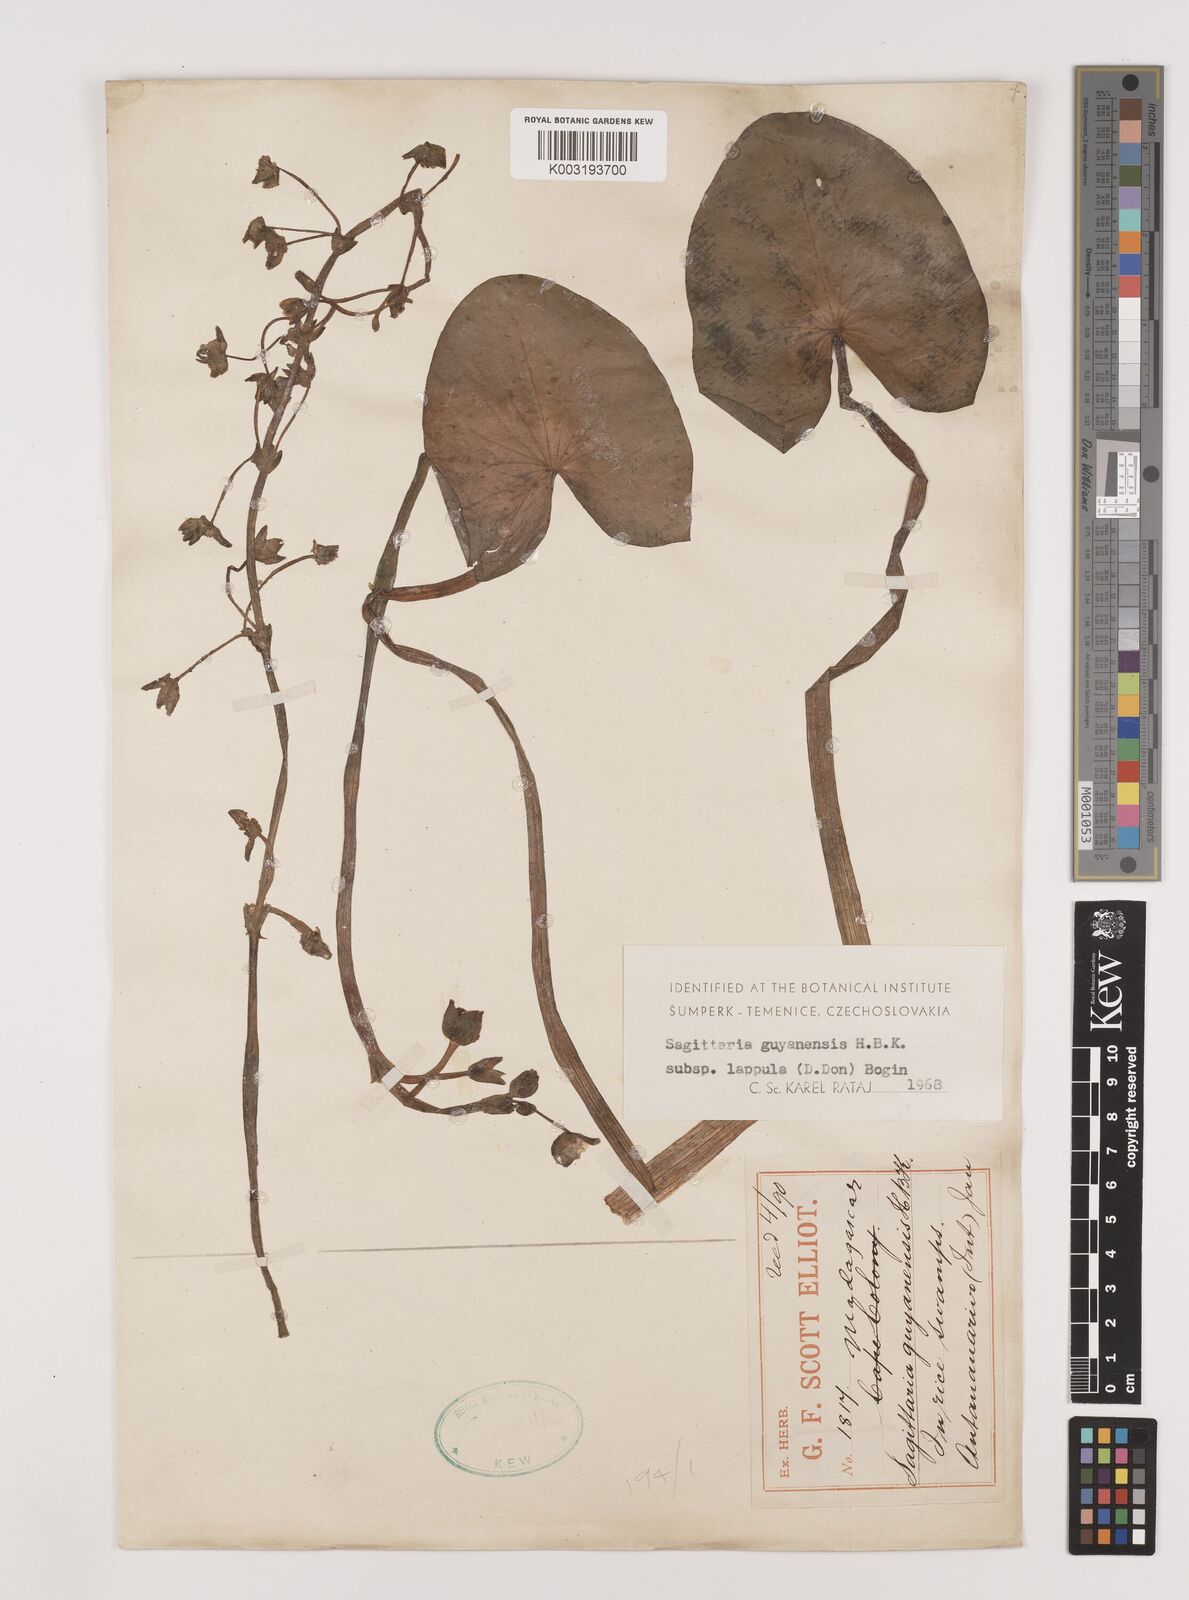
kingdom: Plantae
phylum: Tracheophyta
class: Liliopsida
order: Alismatales
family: Alismataceae
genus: Sagittaria
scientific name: Sagittaria guayanensis
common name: Guyanese arrowhead
